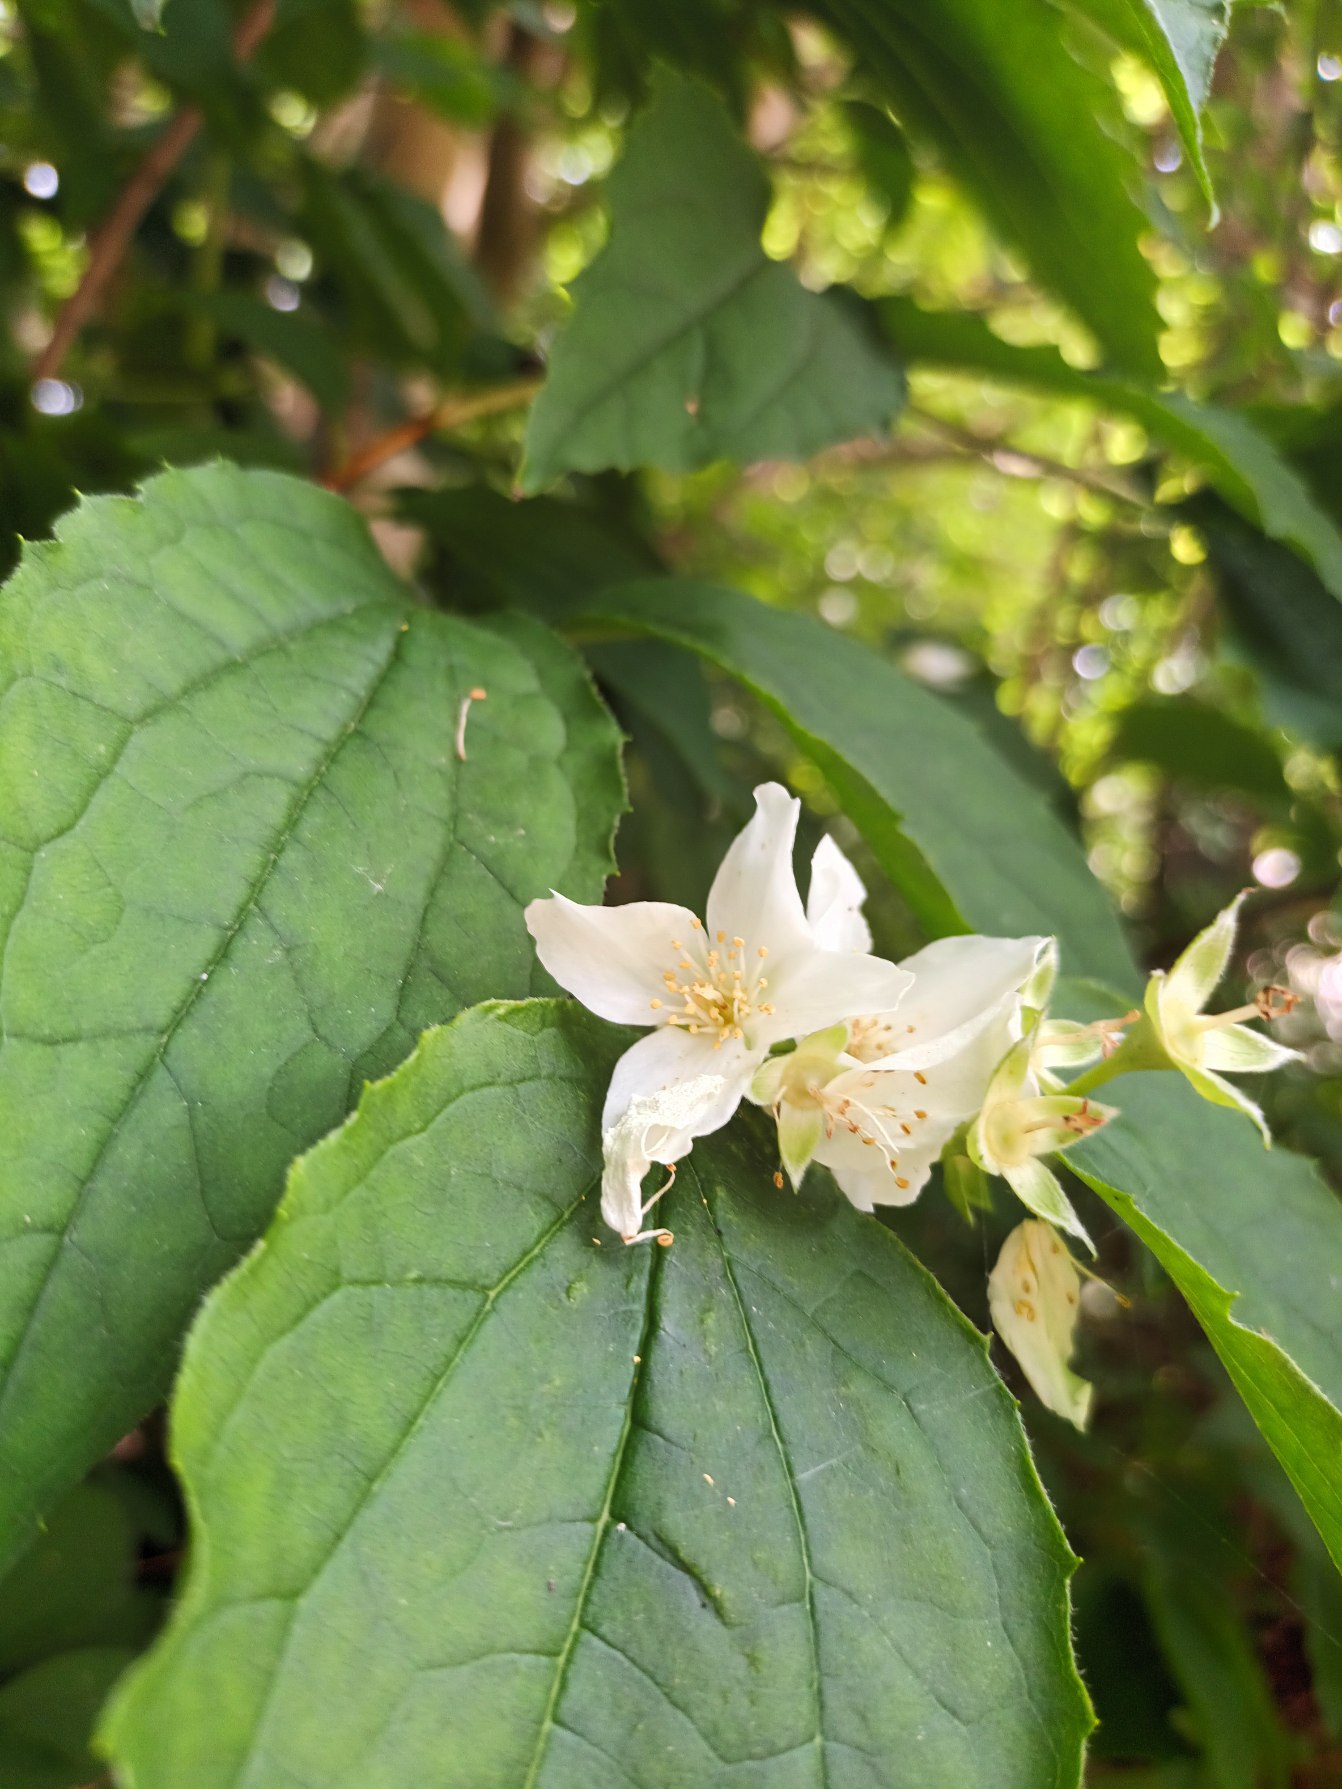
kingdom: Plantae
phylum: Tracheophyta
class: Magnoliopsida
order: Cornales
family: Hydrangeaceae
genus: Philadelphus
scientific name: Philadelphus coronarius
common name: Almindelig pibeved
